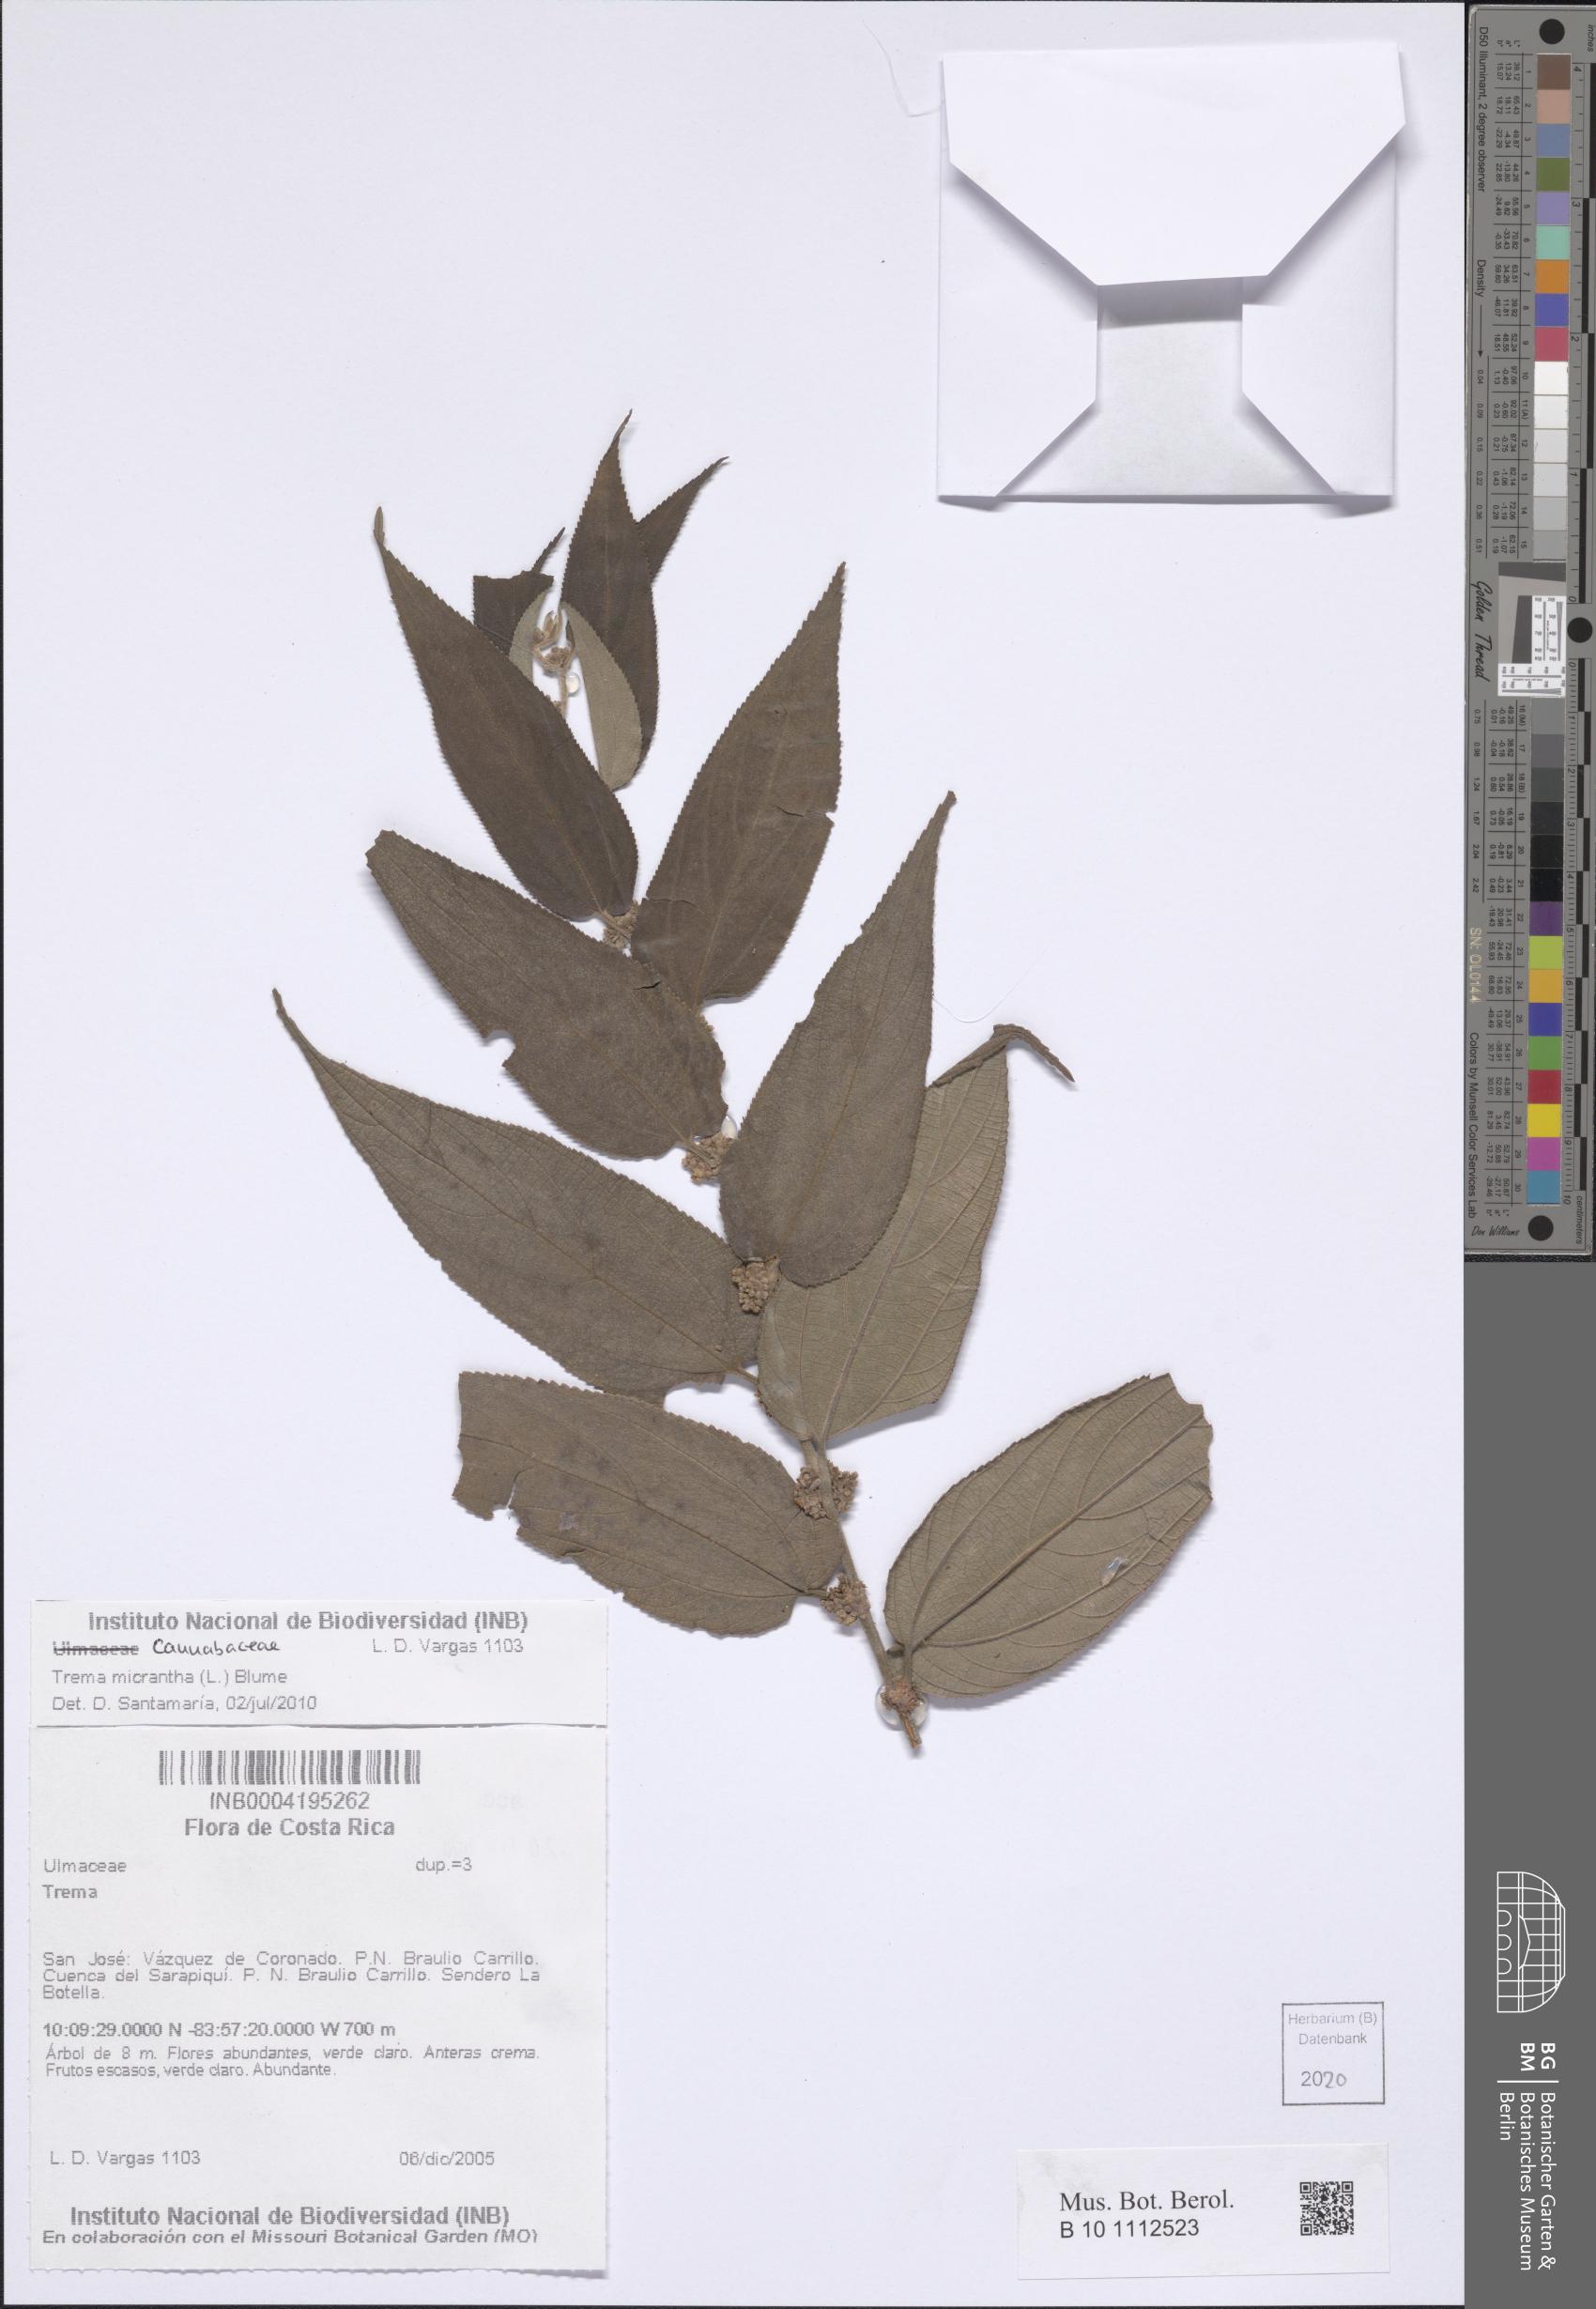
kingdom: Plantae
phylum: Tracheophyta
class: Magnoliopsida
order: Rosales
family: Cannabaceae
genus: Trema
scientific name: Trema micranthum
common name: Jamaican nettletree
